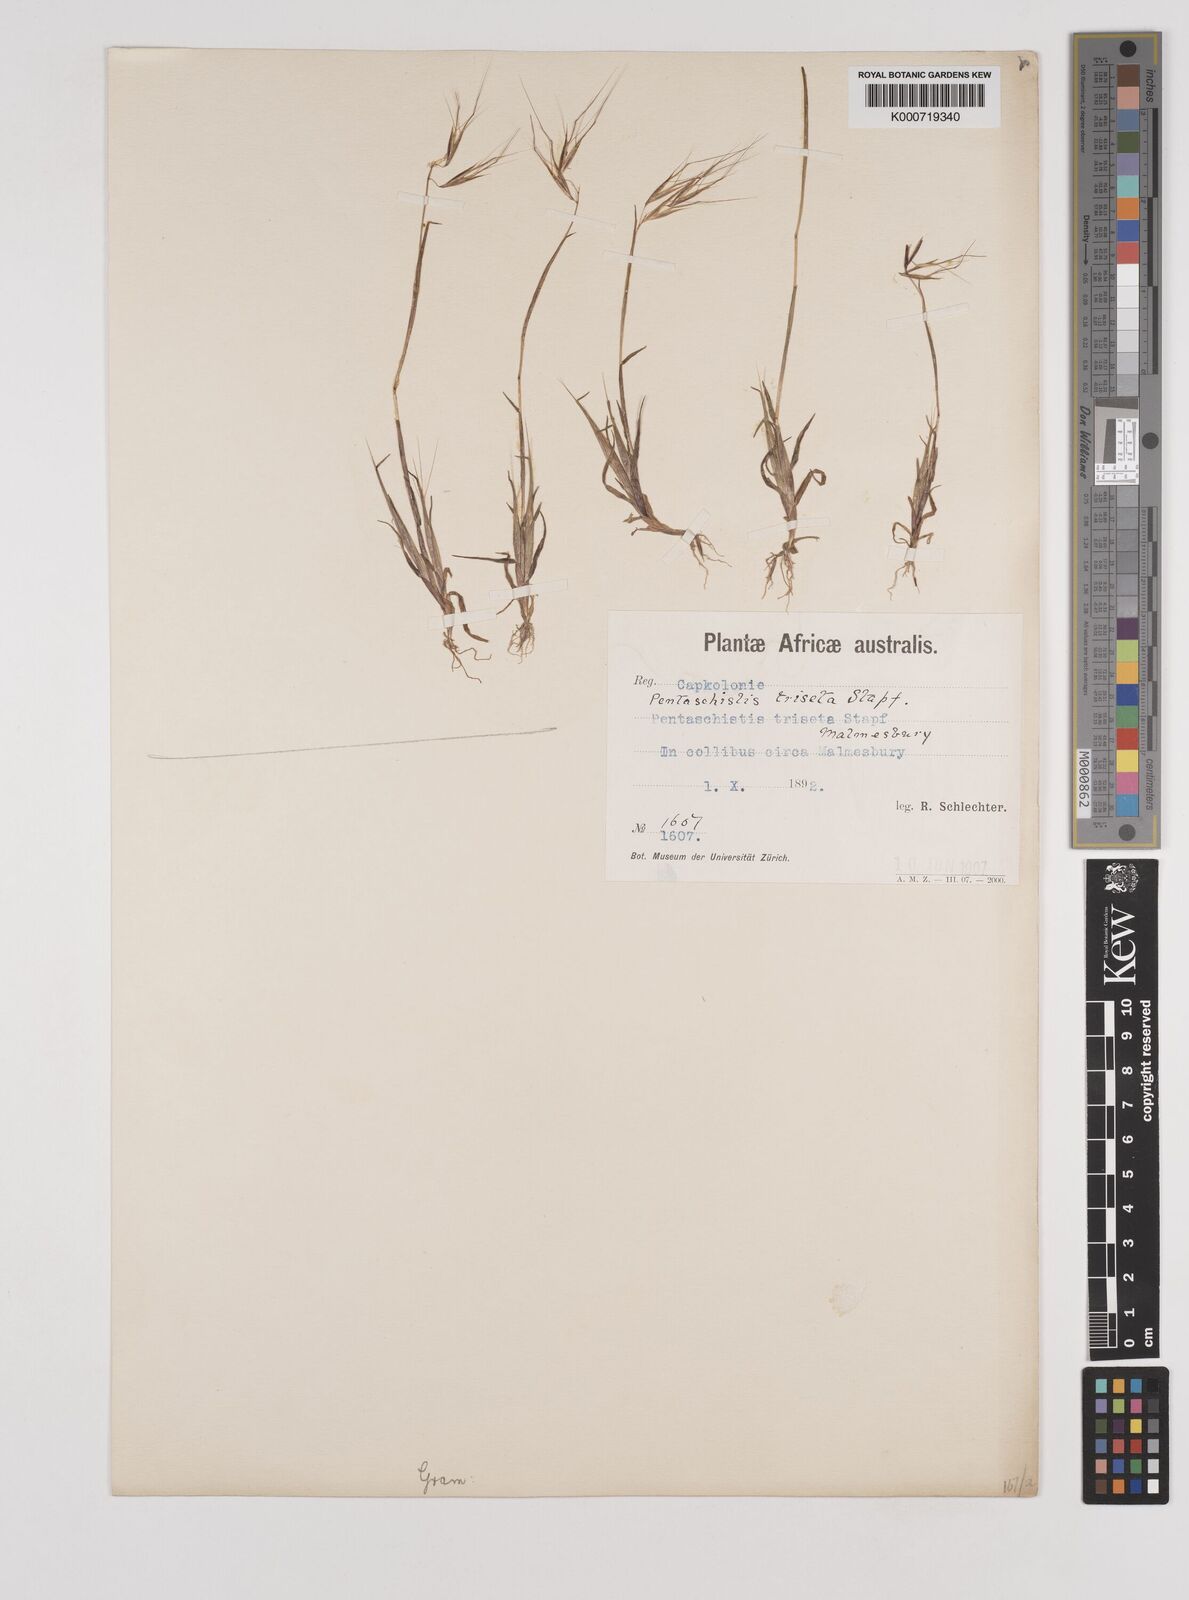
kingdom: Plantae
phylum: Tracheophyta
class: Liliopsida
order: Poales
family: Poaceae
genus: Pentameris
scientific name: Pentameris triseta
